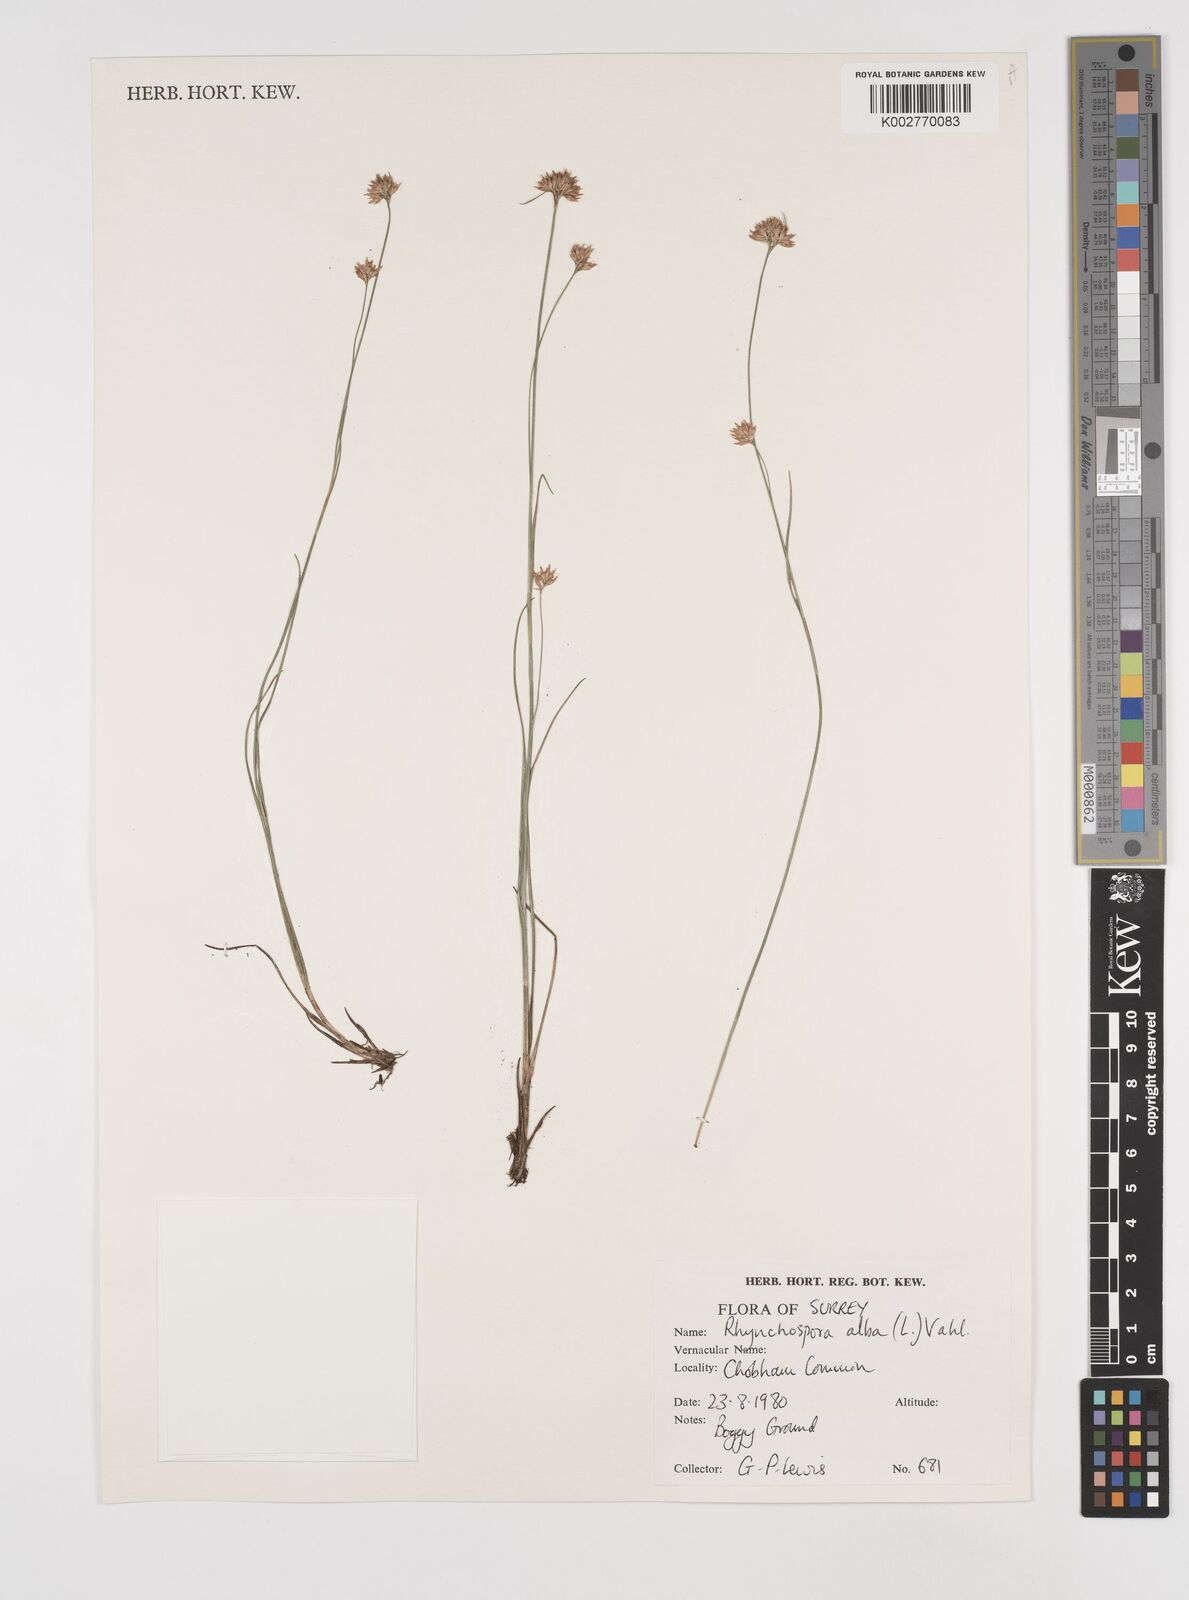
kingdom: Plantae
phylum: Tracheophyta
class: Liliopsida
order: Poales
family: Cyperaceae
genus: Rhynchospora
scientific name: Rhynchospora alba
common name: White beak-sedge
